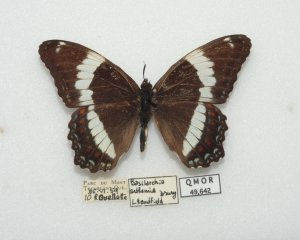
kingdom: Animalia
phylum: Arthropoda
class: Insecta
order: Lepidoptera
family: Nymphalidae
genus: Limenitis
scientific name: Limenitis arthemis
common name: Red-spotted Admiral
